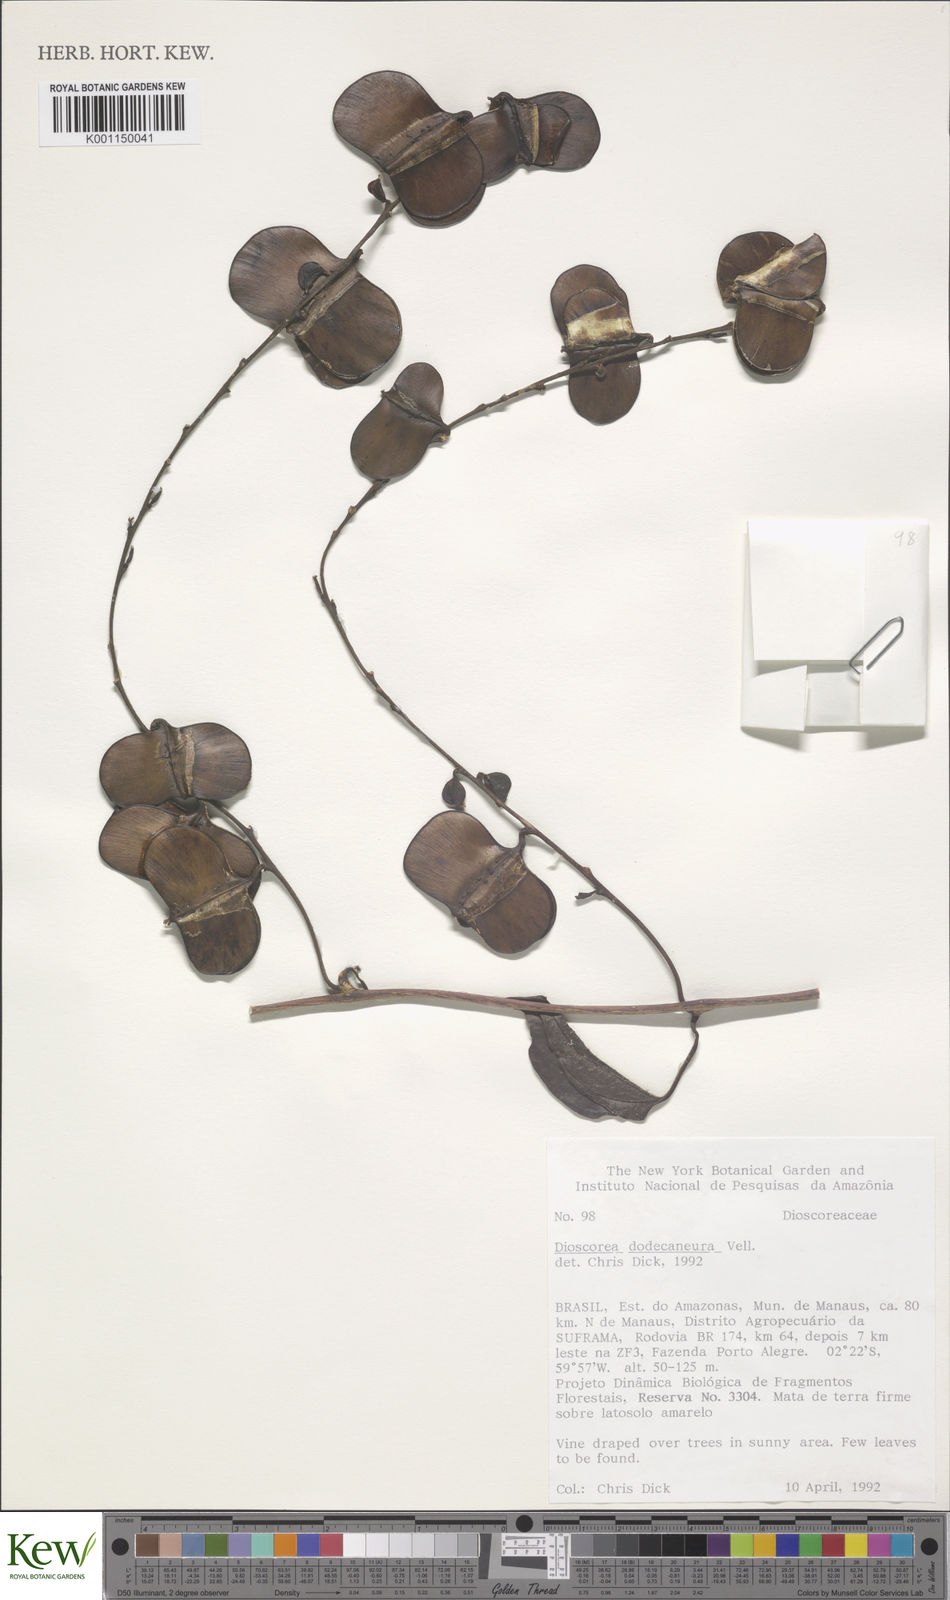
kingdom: Plantae
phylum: Tracheophyta
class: Liliopsida
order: Dioscoreales
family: Dioscoreaceae
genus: Dioscorea
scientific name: Dioscorea
